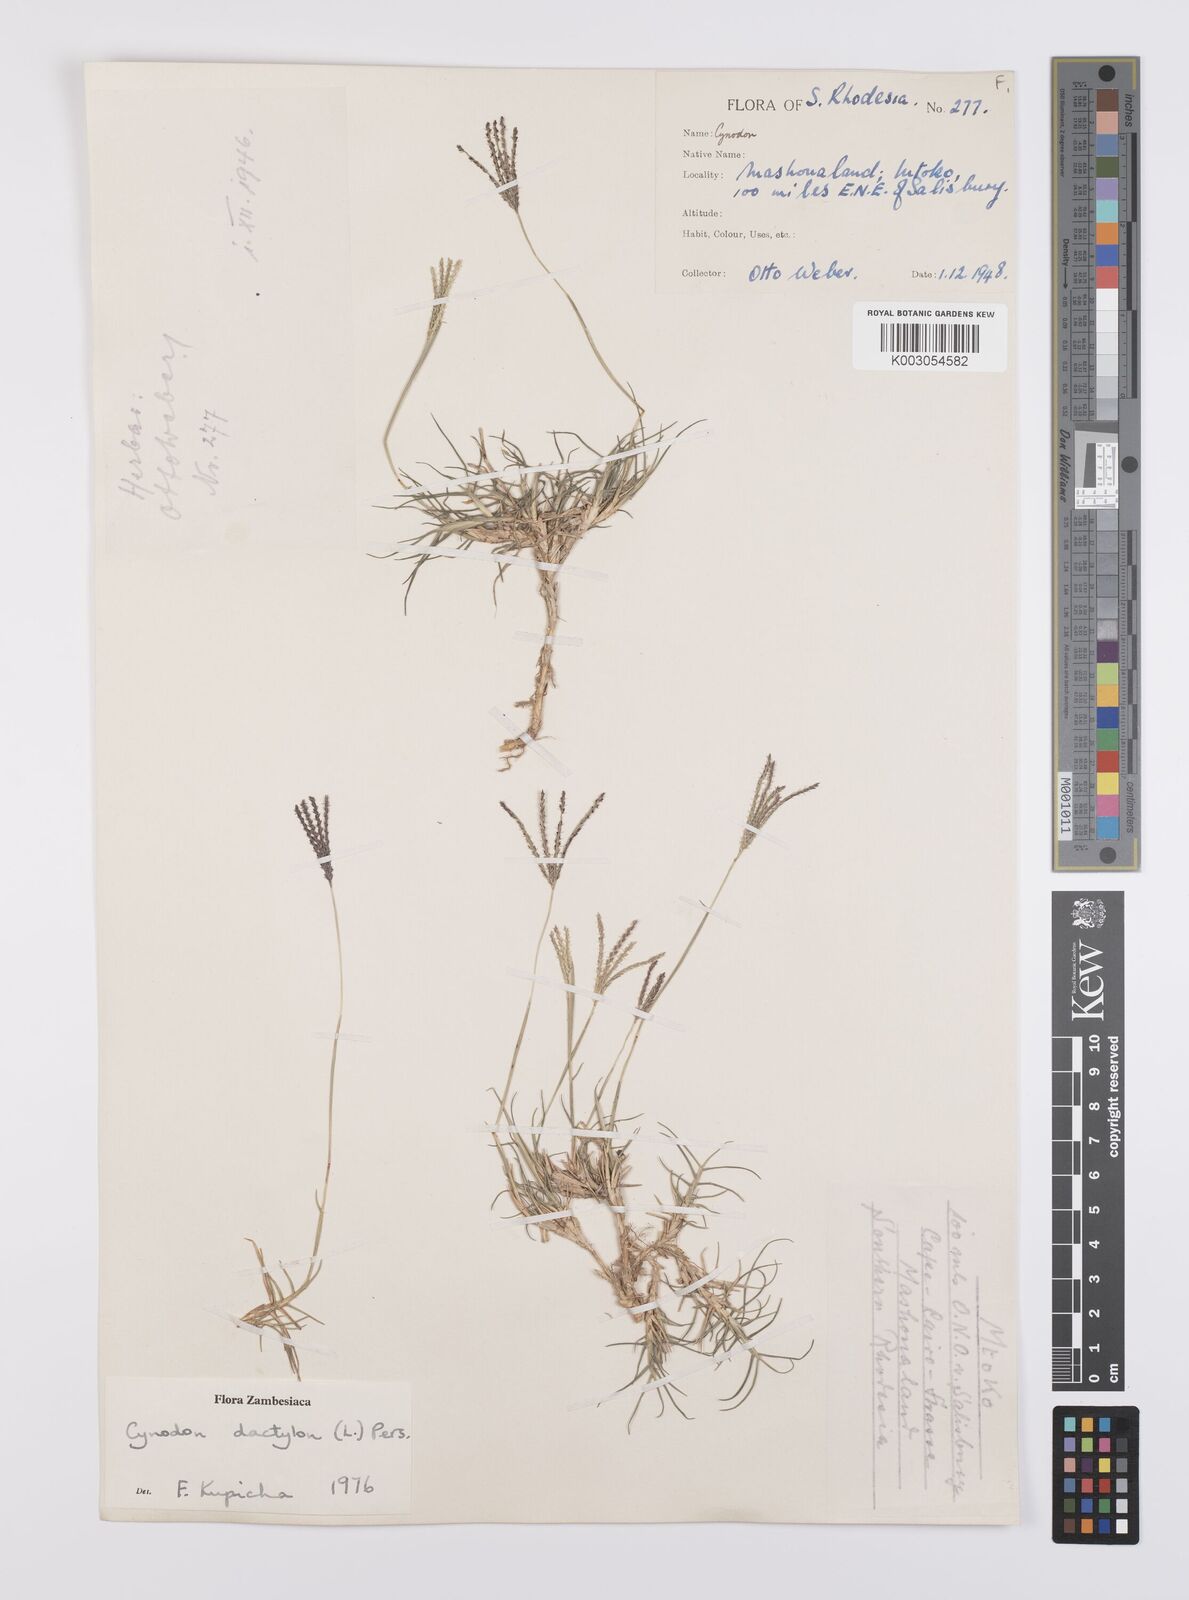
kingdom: Plantae
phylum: Tracheophyta
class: Liliopsida
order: Poales
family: Poaceae
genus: Cynodon
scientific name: Cynodon dactylon
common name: Bermuda grass
